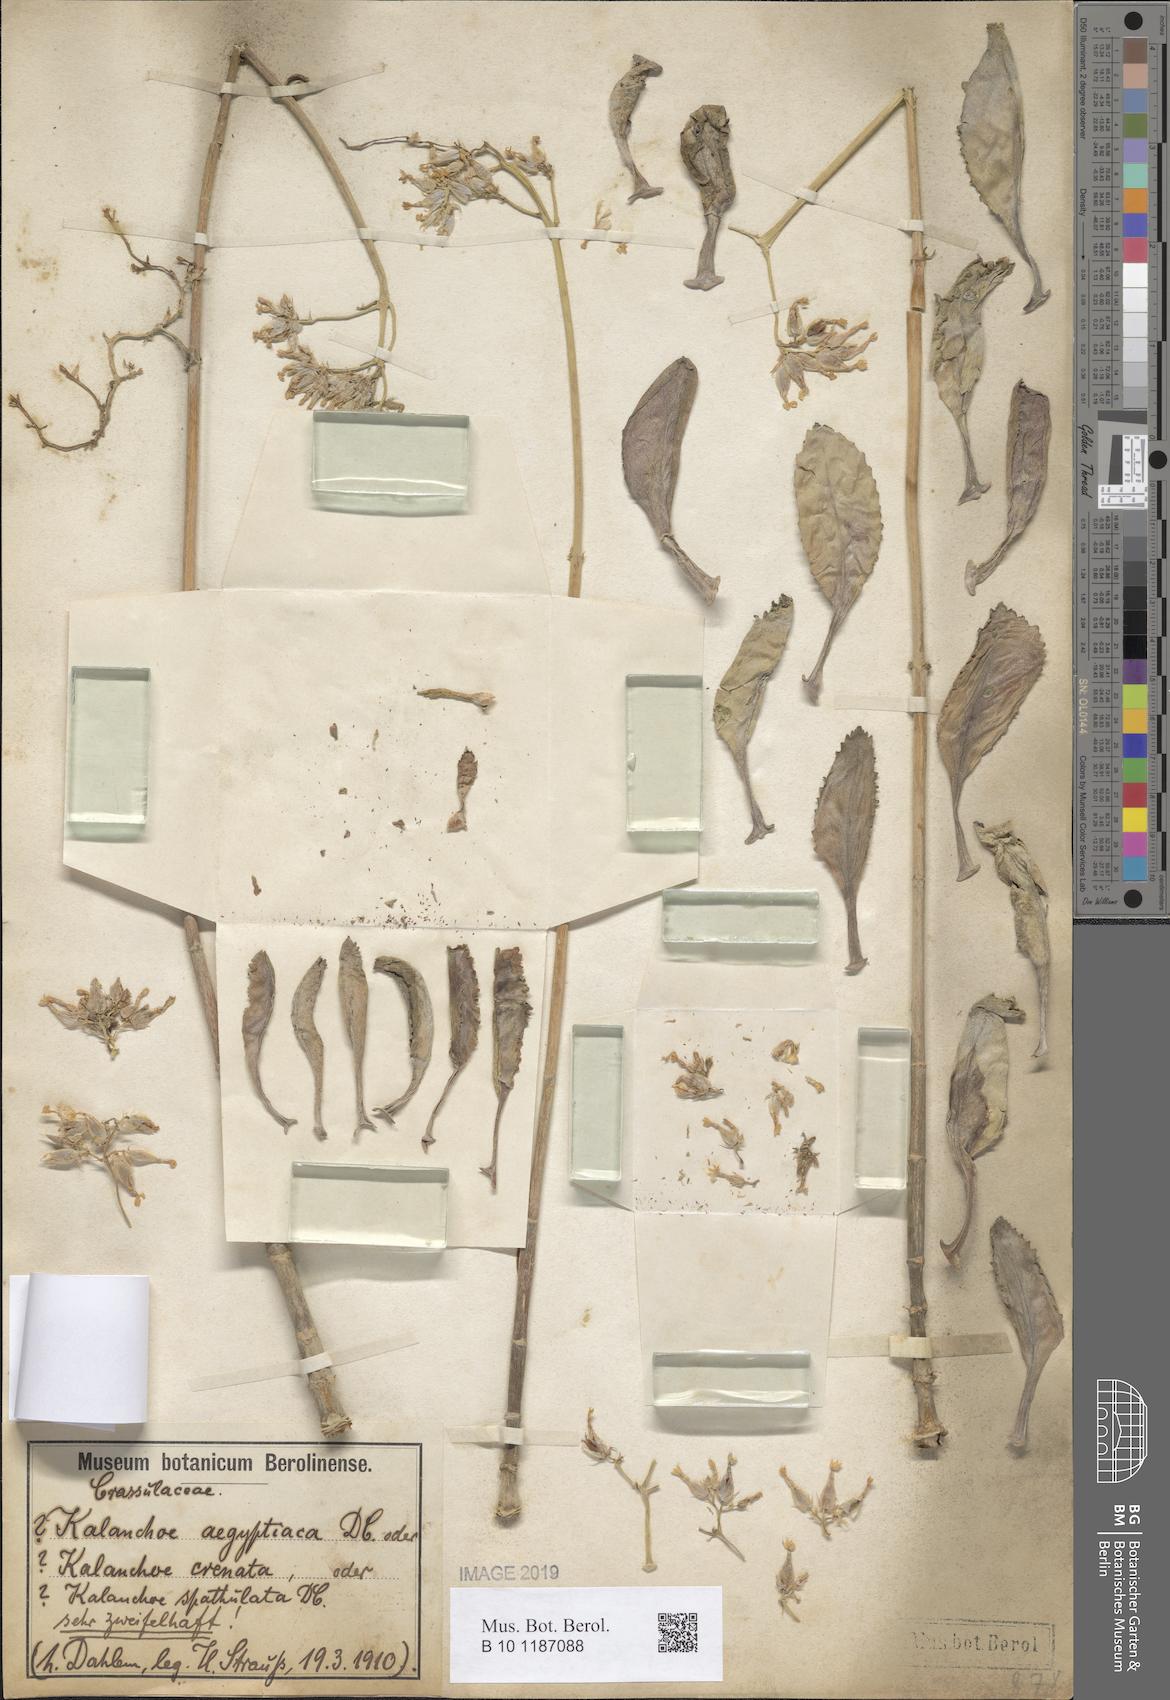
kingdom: Plantae
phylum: Tracheophyta
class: Magnoliopsida
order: Saxifragales
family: Crassulaceae
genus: Kalanchoe
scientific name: Kalanchoe
